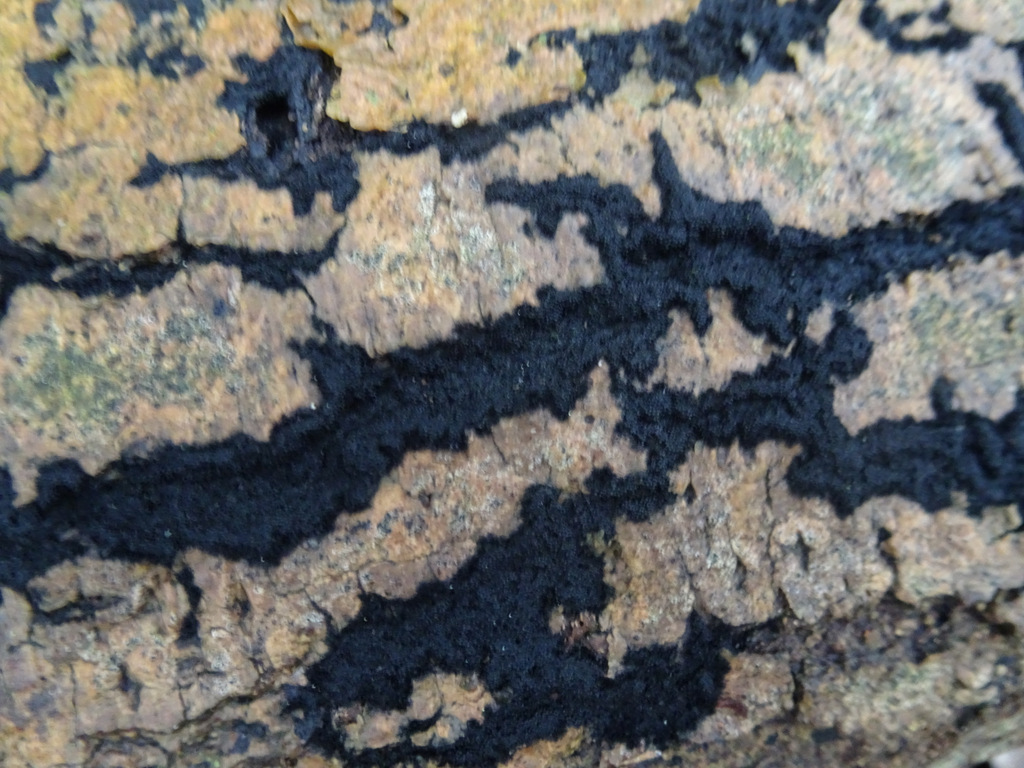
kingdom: Fungi
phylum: Ascomycota
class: Sordariomycetes
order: Sordariales
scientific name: Sordariales
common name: kernesvampordenen
